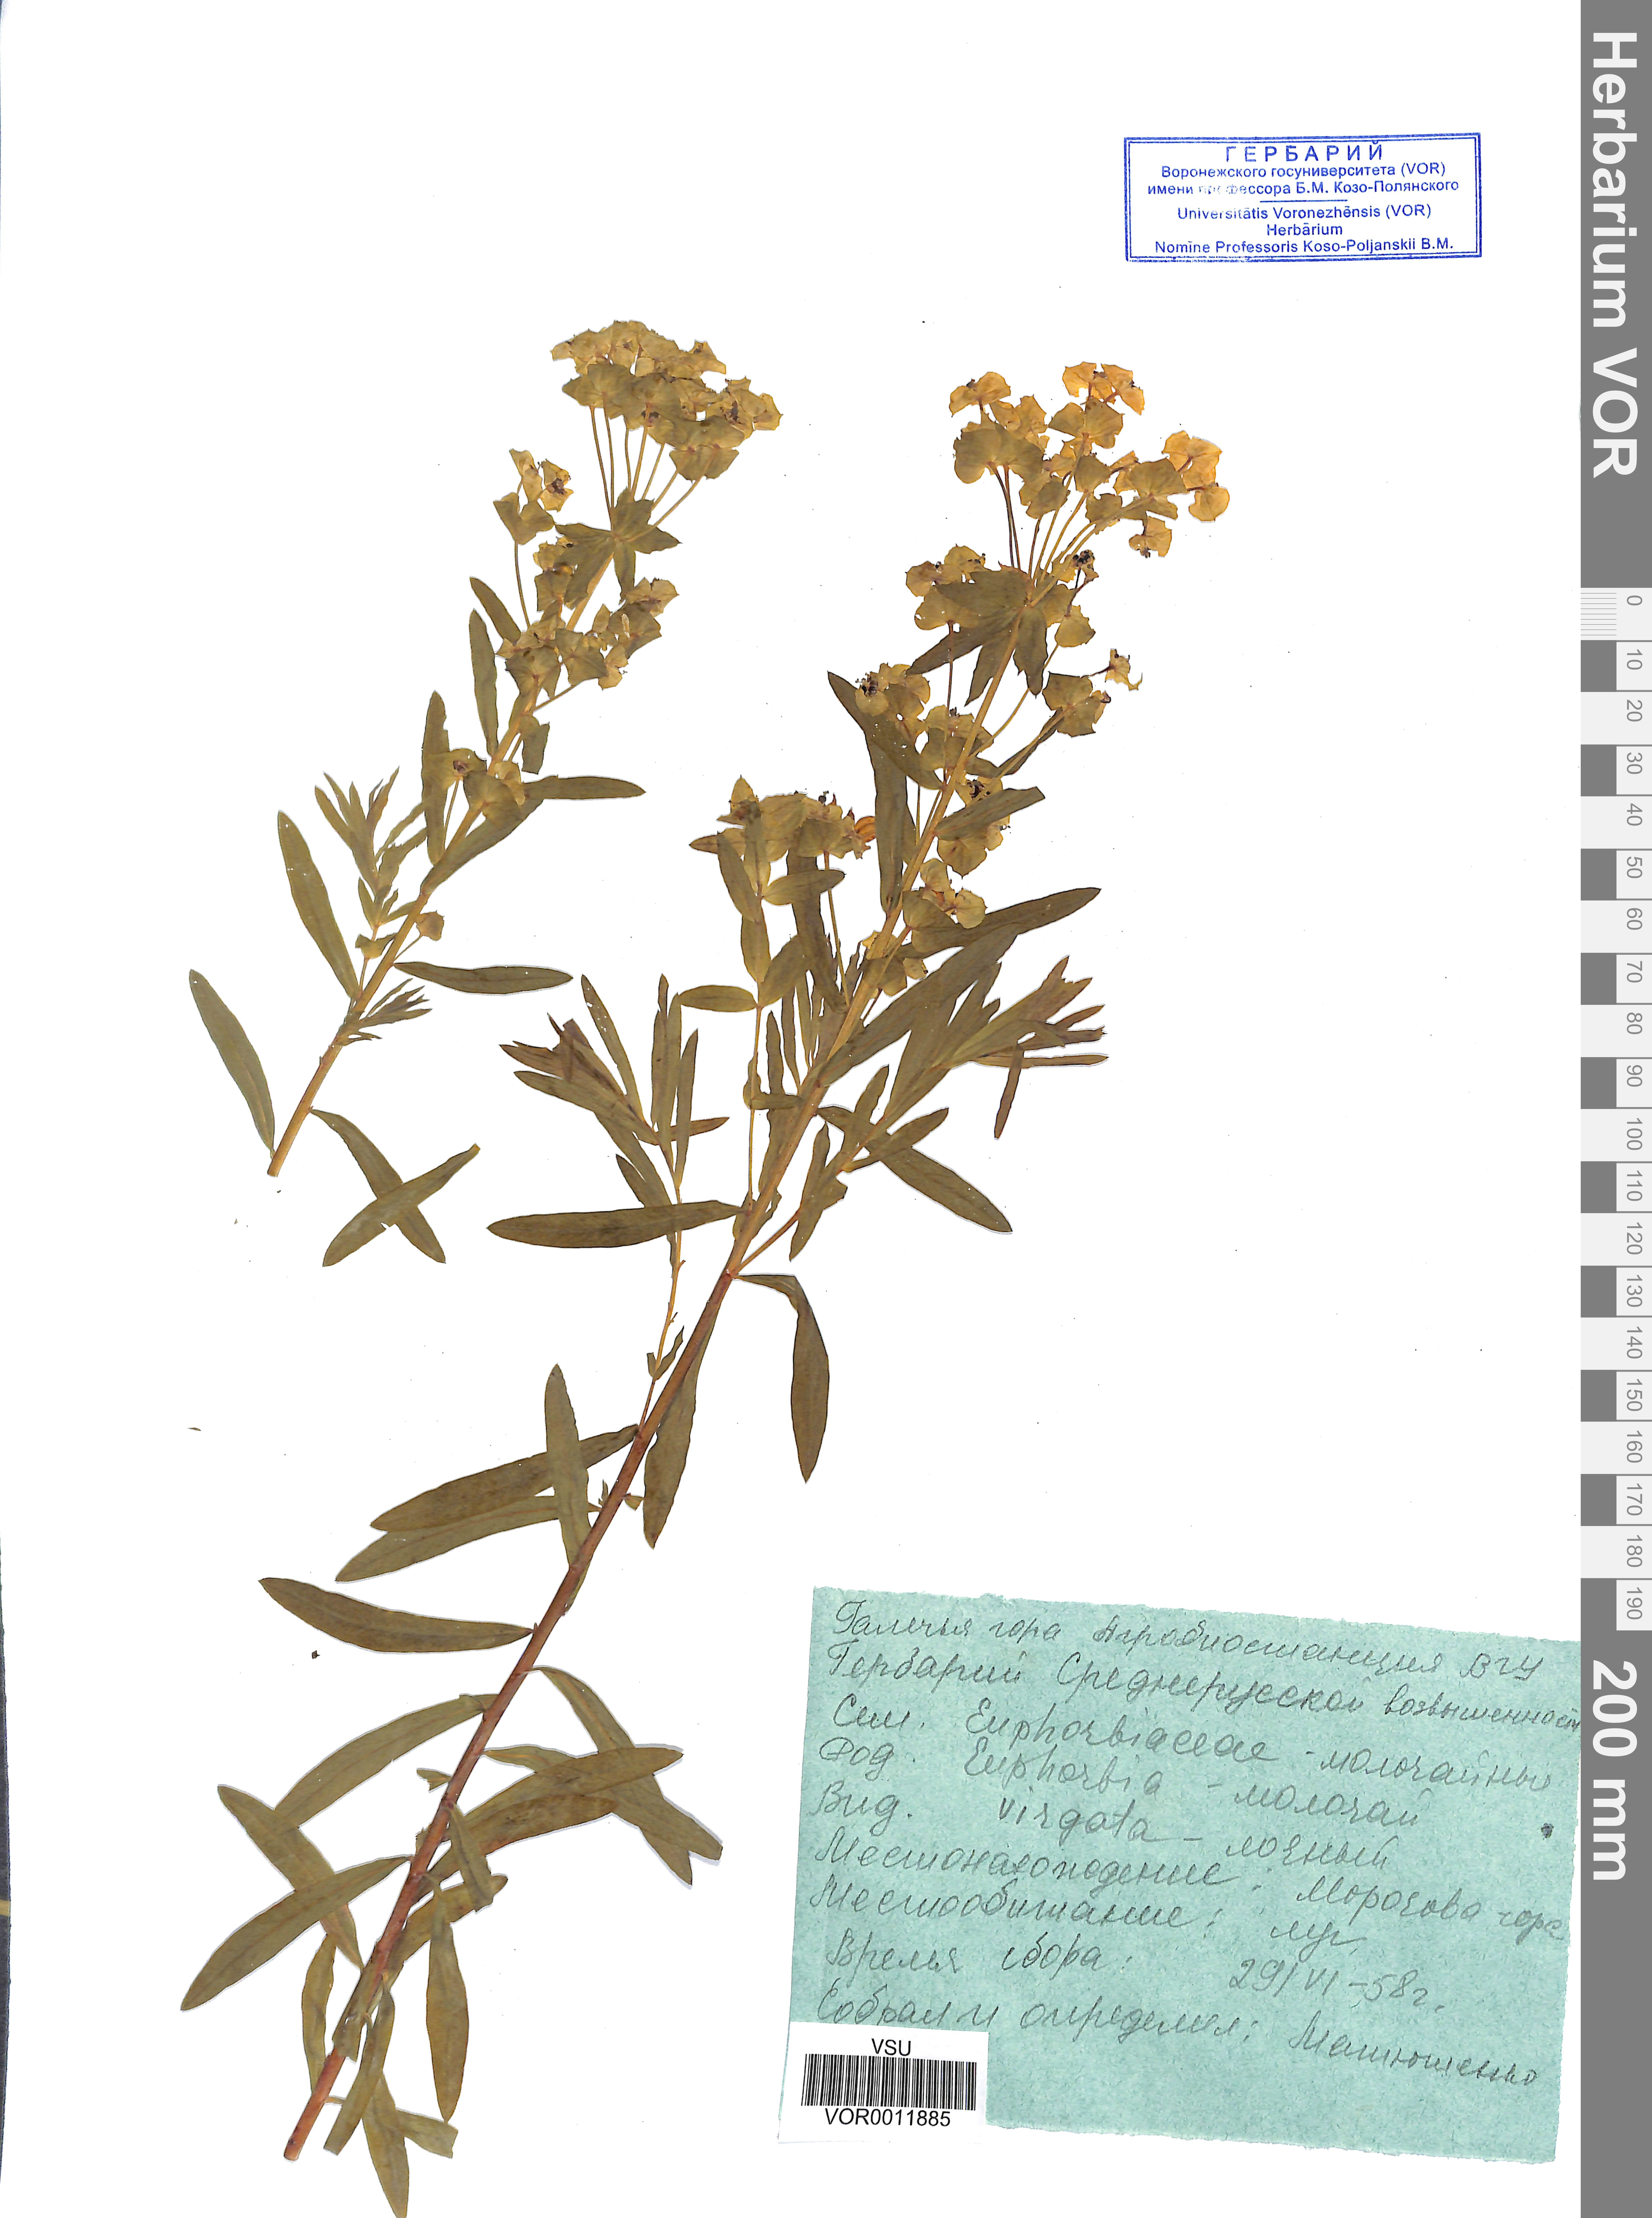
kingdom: Plantae
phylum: Tracheophyta
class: Magnoliopsida
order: Malpighiales
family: Euphorbiaceae
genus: Euphorbia
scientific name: Euphorbia virgata
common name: Leafy spurge
